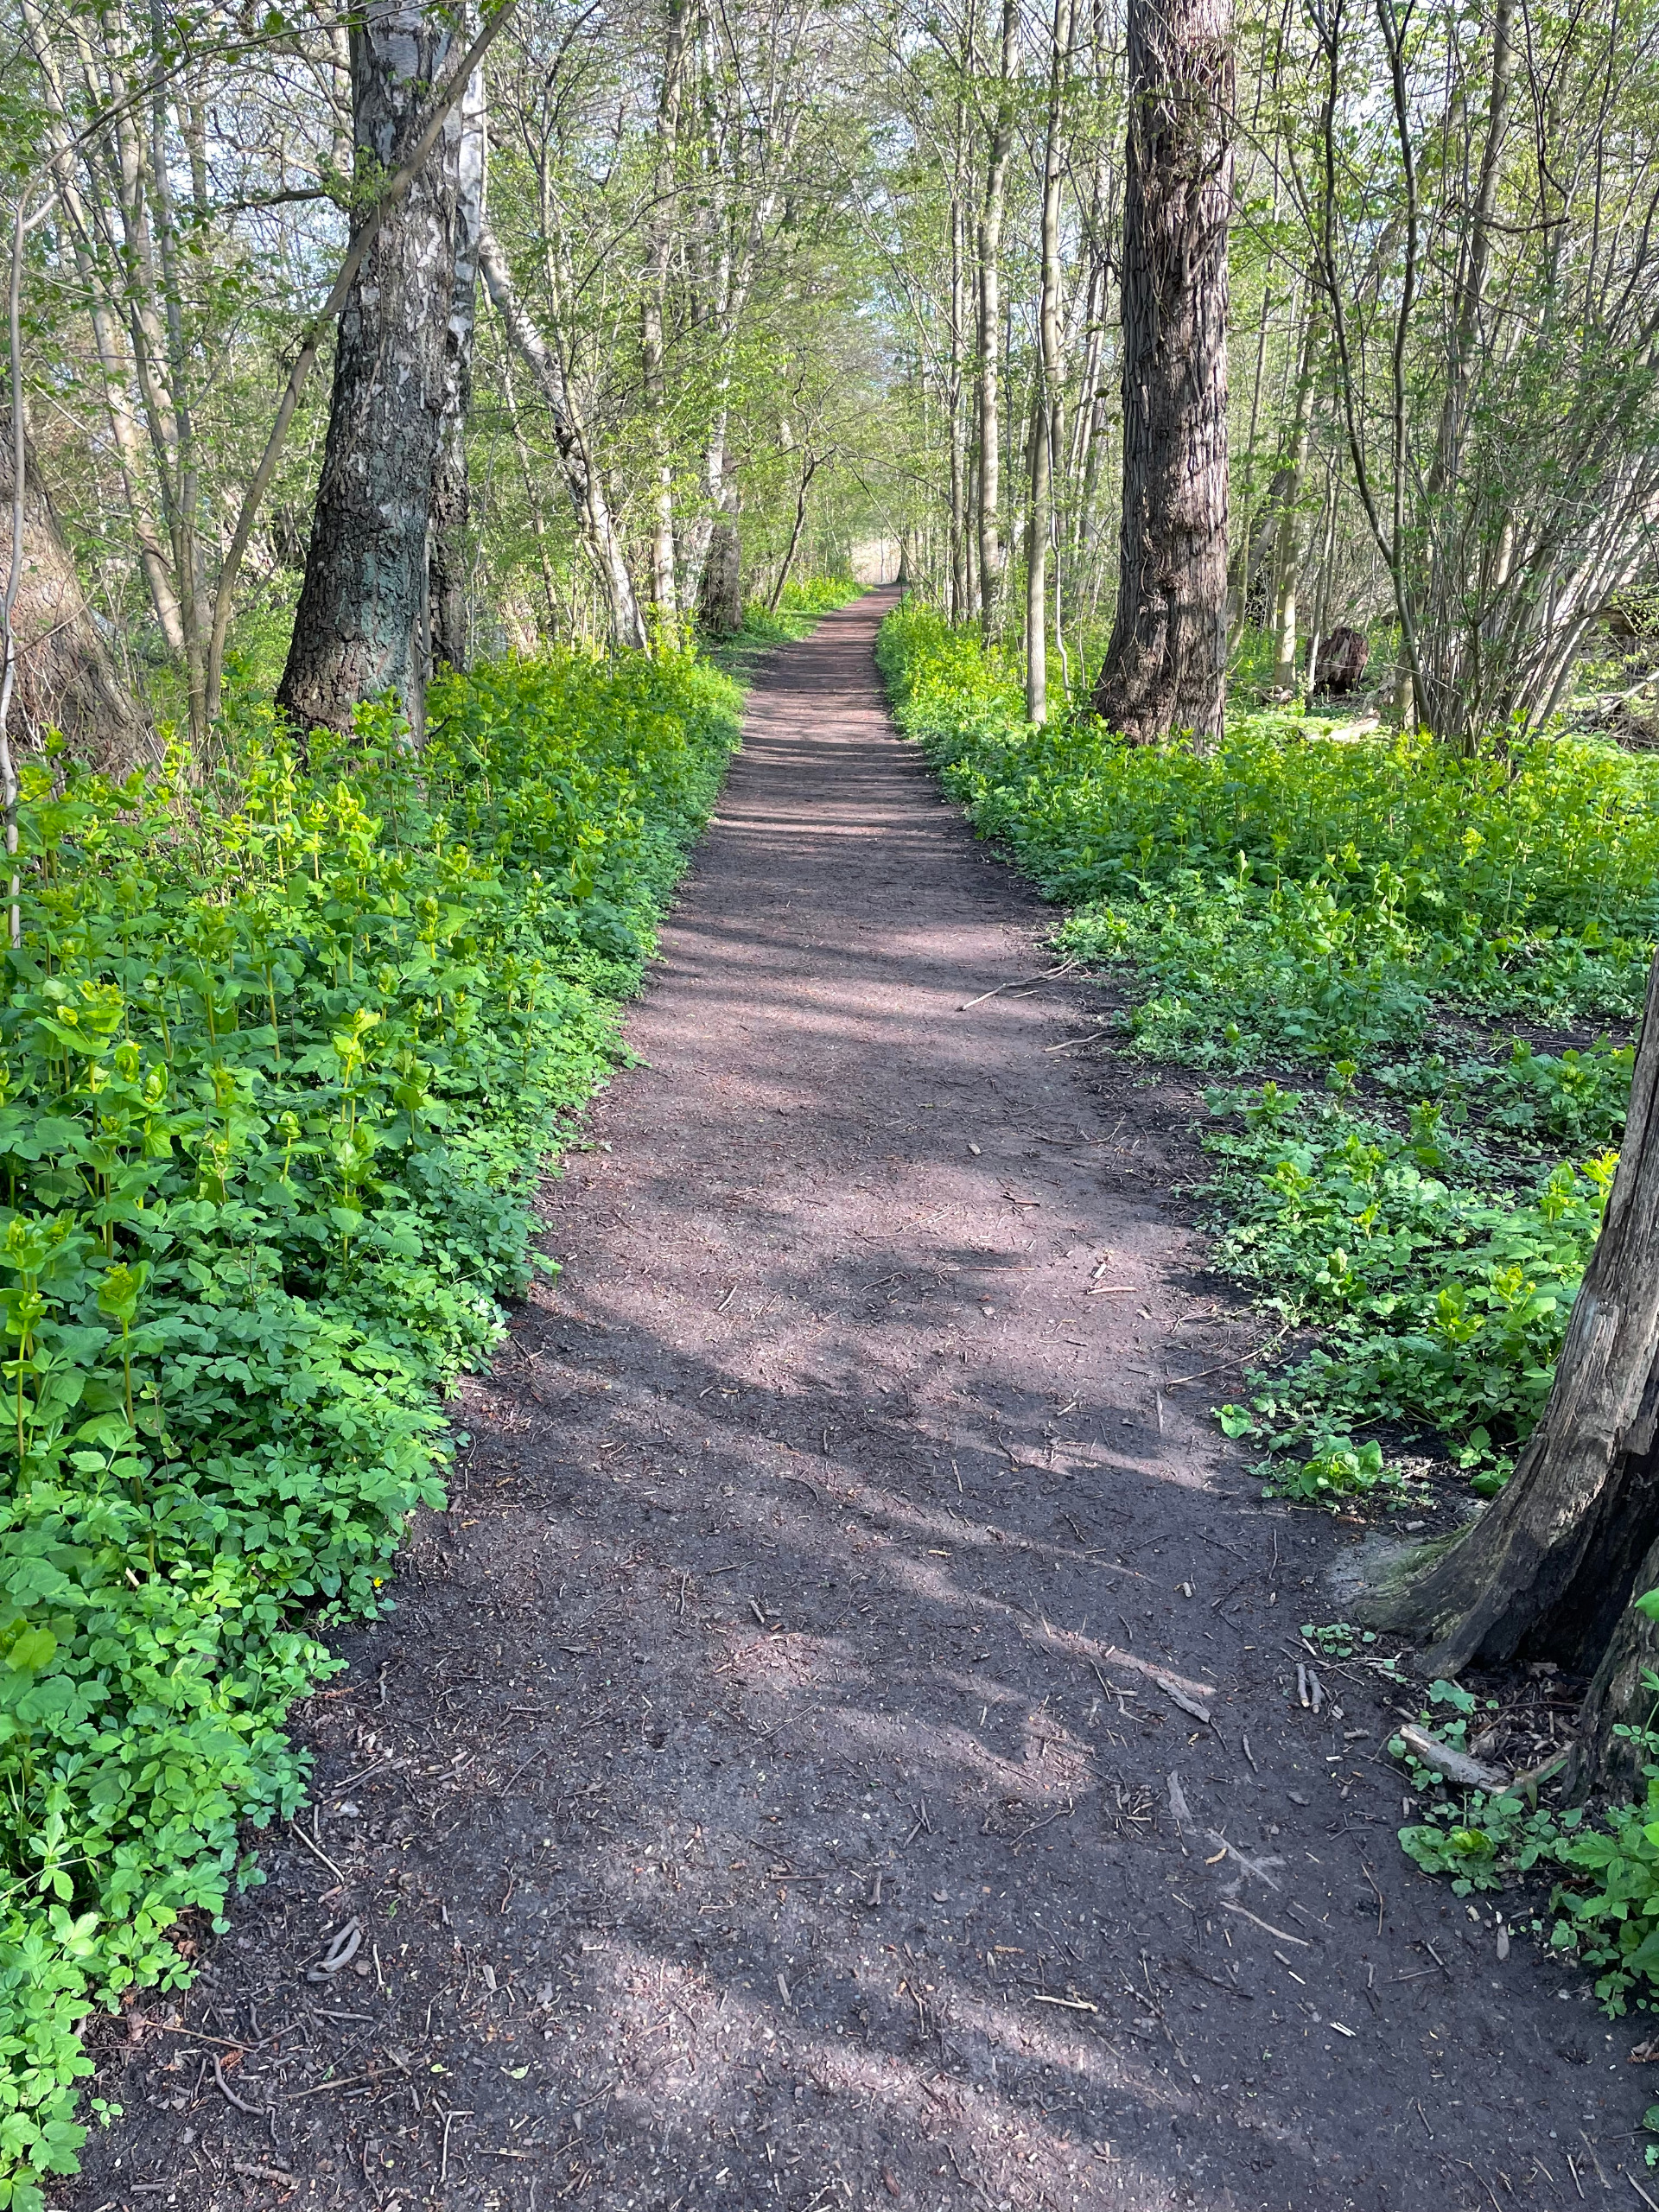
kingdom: Plantae
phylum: Tracheophyta
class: Magnoliopsida
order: Apiales
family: Apiaceae
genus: Smyrnium
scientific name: Smyrnium perfoliatum
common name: Lundgylden
